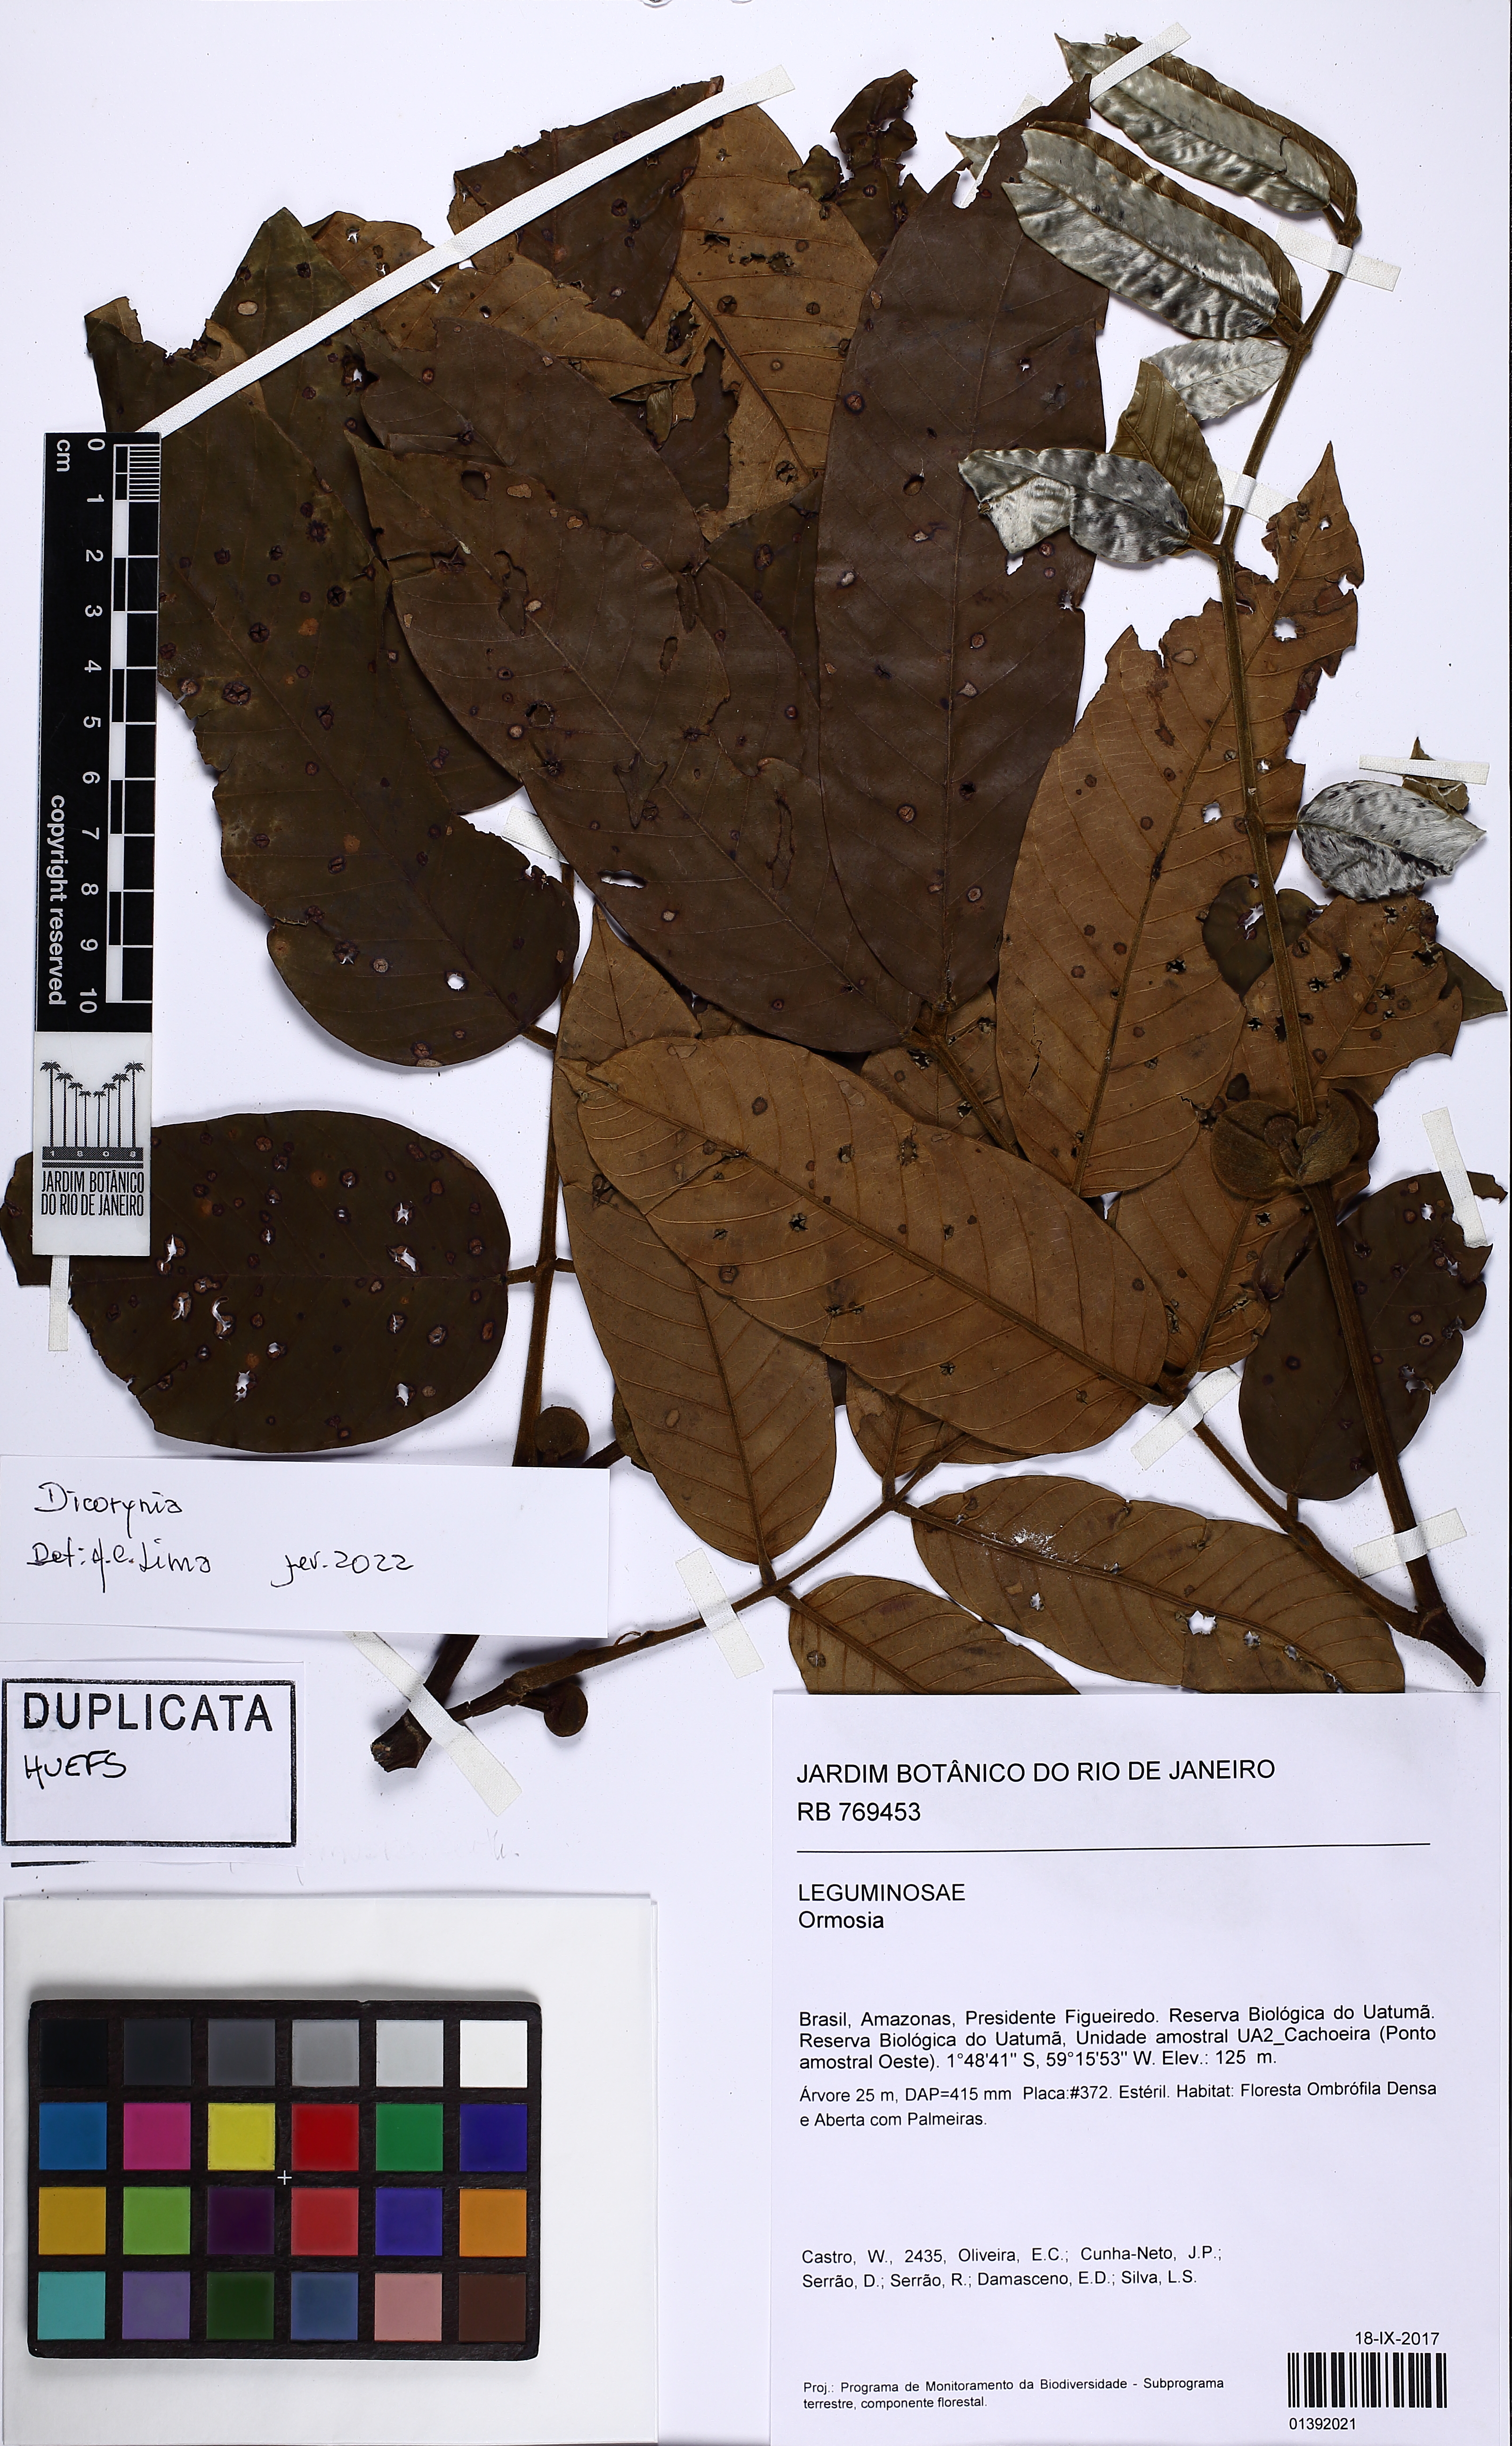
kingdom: Plantae
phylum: Tracheophyta
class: Magnoliopsida
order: Fabales
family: Fabaceae
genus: Swartzia
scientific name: Swartzia panacoco
